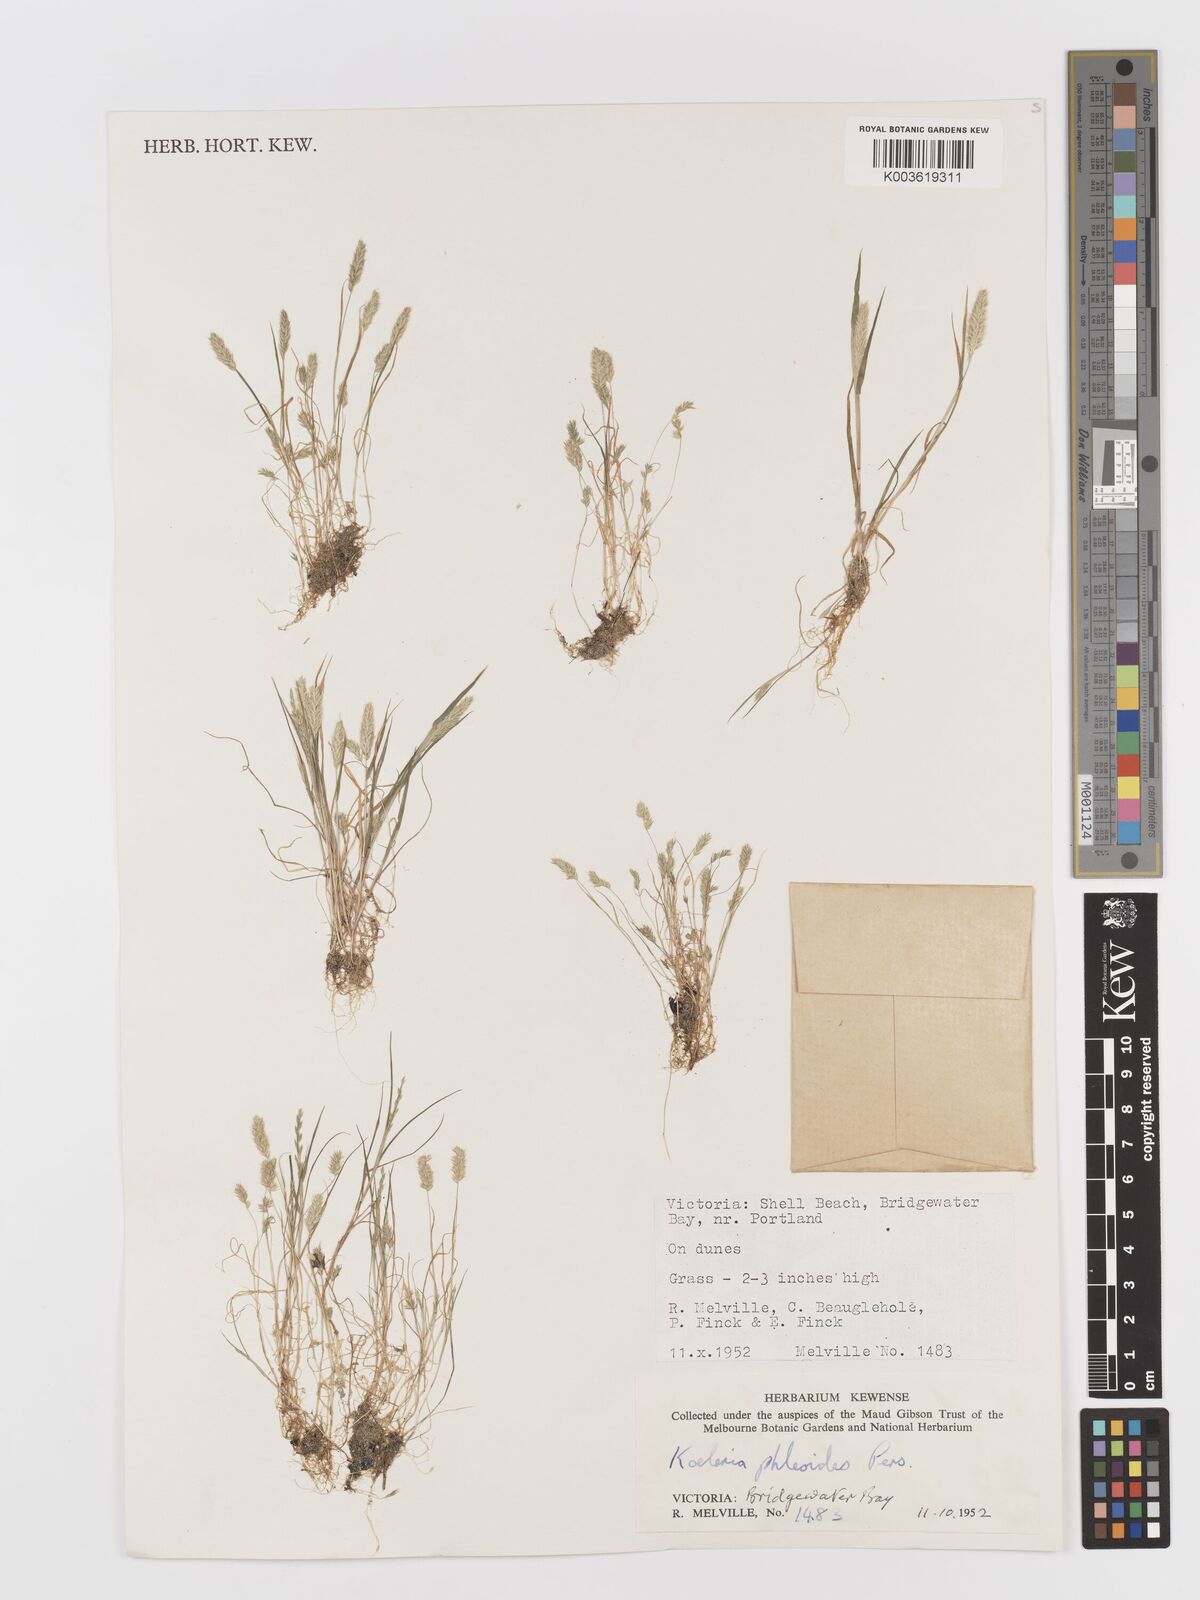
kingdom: Plantae
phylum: Tracheophyta
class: Liliopsida
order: Poales
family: Poaceae
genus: Rostraria
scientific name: Rostraria cristata
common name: Mediterranean hair-grass
